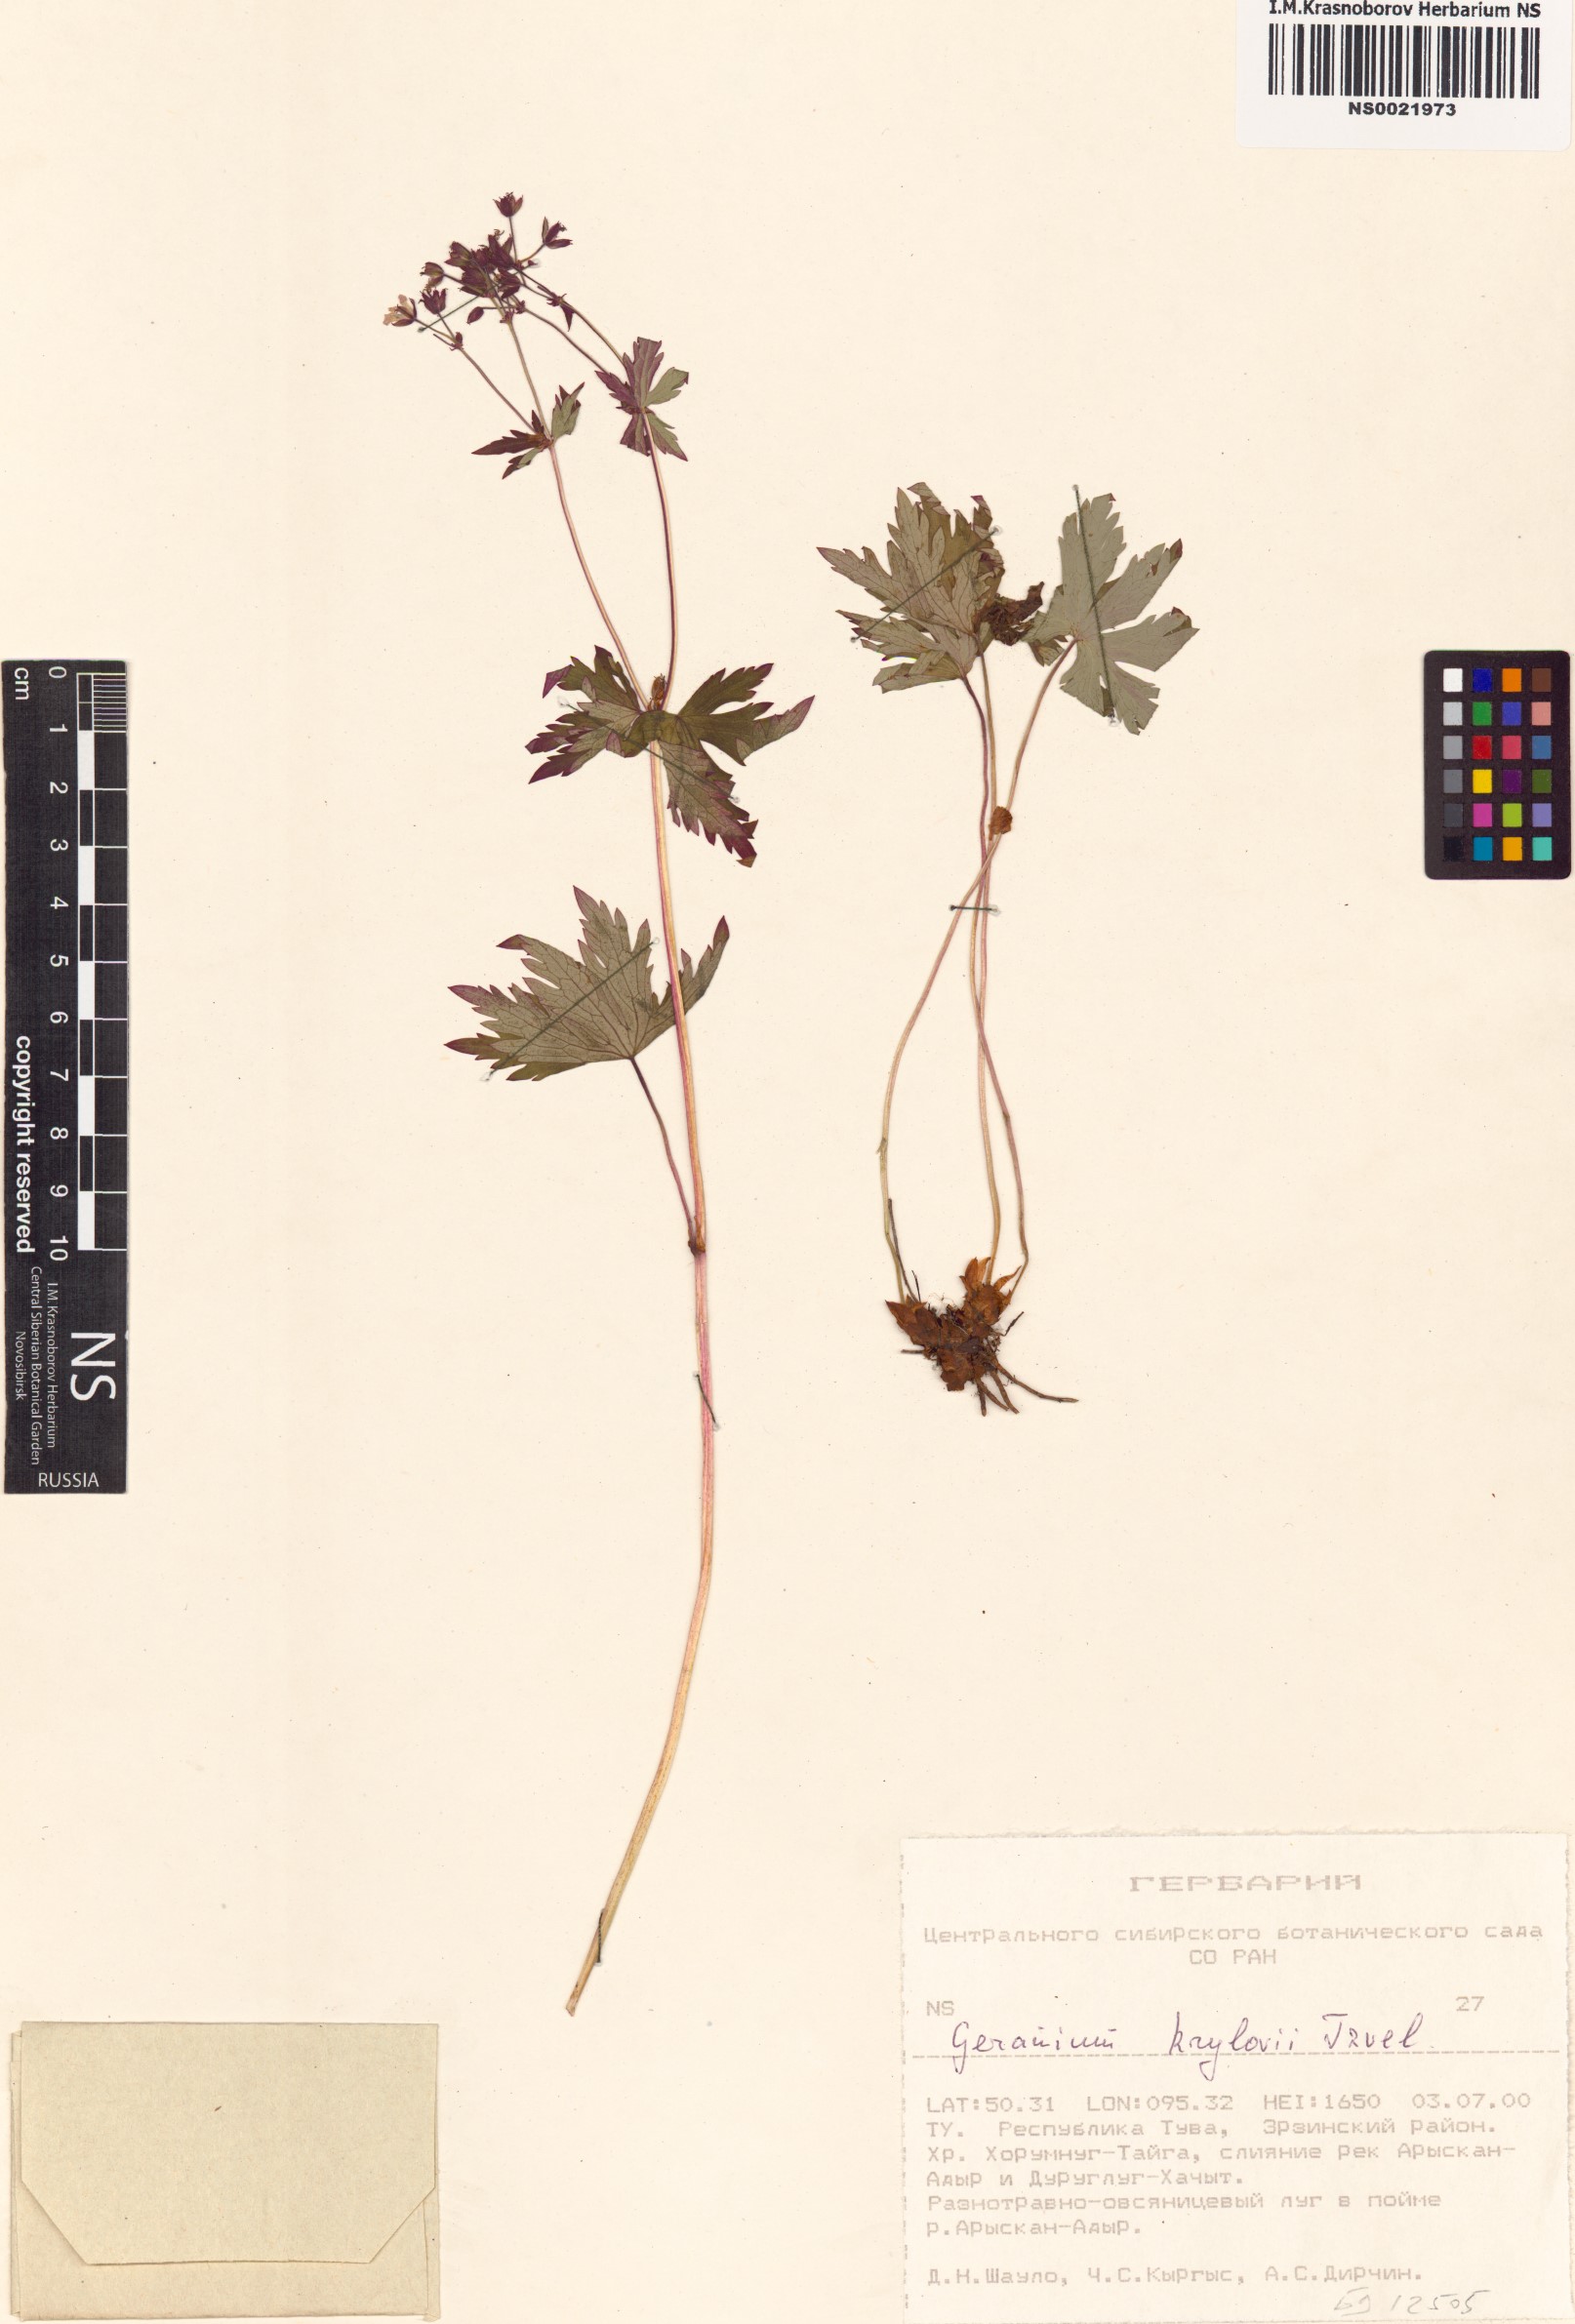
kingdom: Plantae
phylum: Tracheophyta
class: Magnoliopsida
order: Geraniales
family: Geraniaceae
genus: Geranium
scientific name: Geranium sylvaticum
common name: Wood crane's-bill
